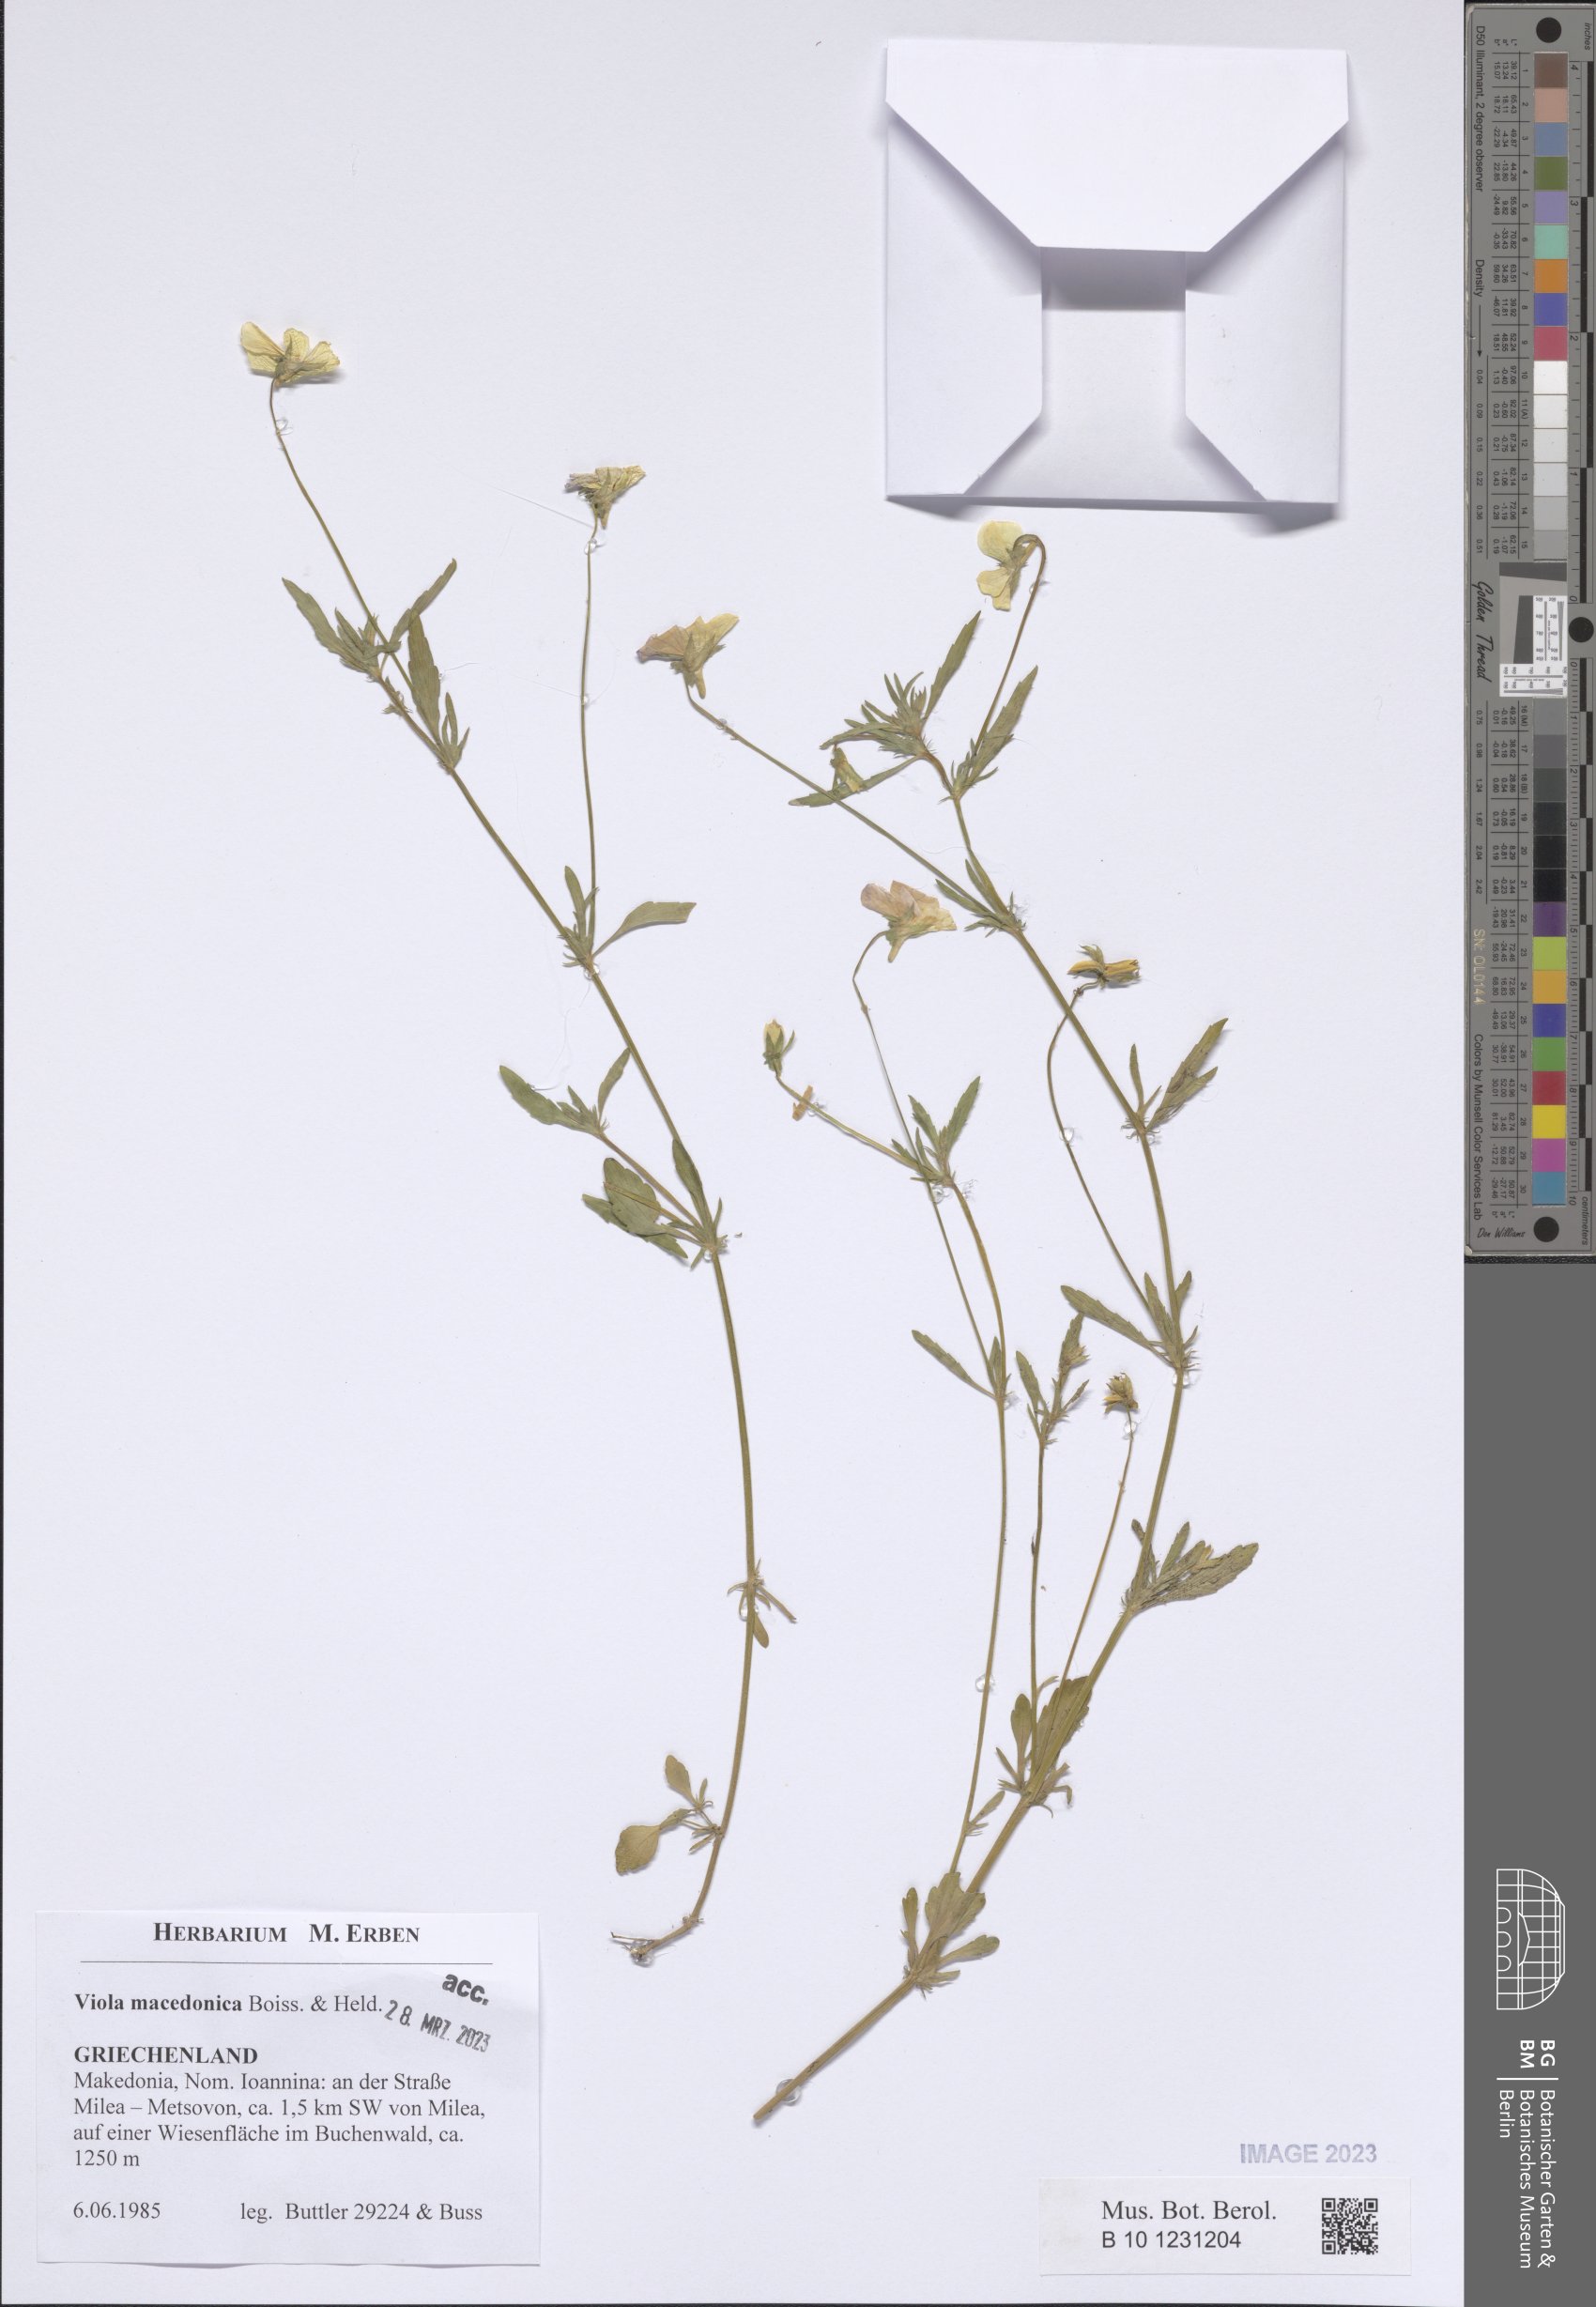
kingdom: Plantae
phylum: Tracheophyta
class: Magnoliopsida
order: Malpighiales
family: Violaceae
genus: Viola
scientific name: Viola tricolor
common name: Pansy
